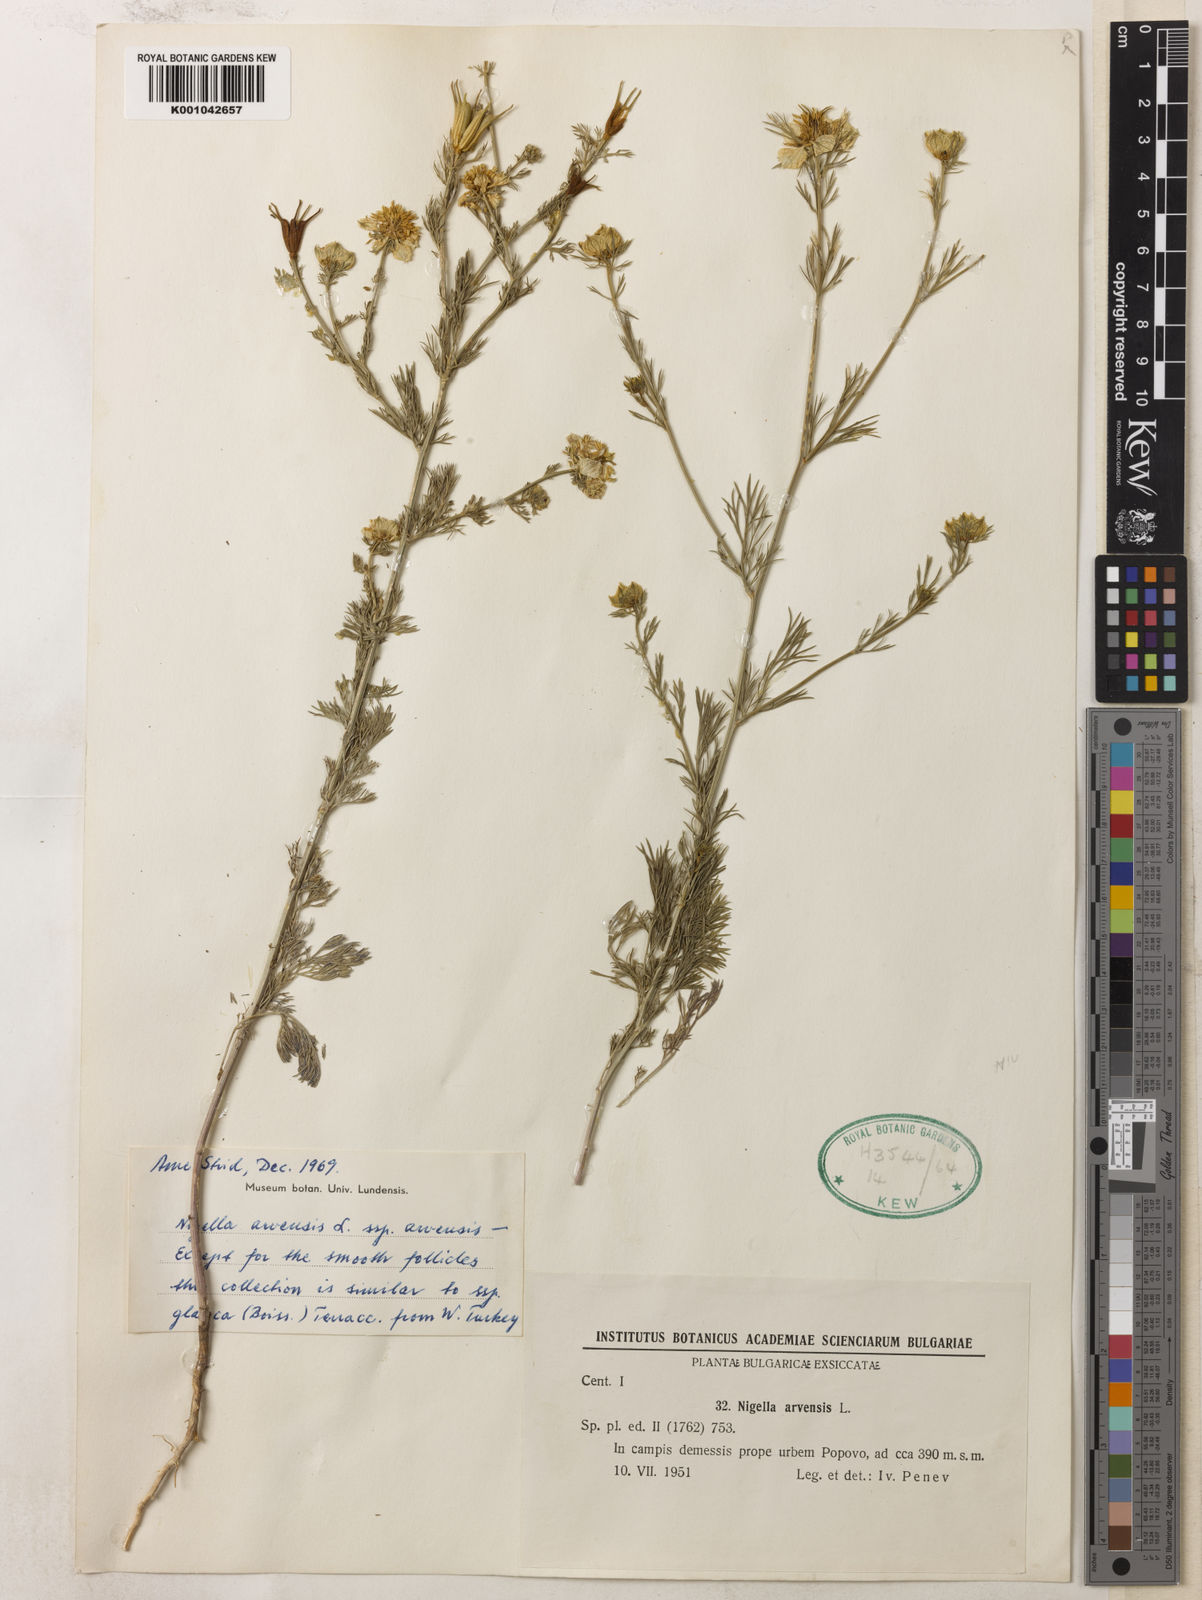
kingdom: Plantae
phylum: Tracheophyta
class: Magnoliopsida
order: Ranunculales
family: Ranunculaceae
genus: Nigella
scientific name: Nigella arvensis
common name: Wild fennel-flower
